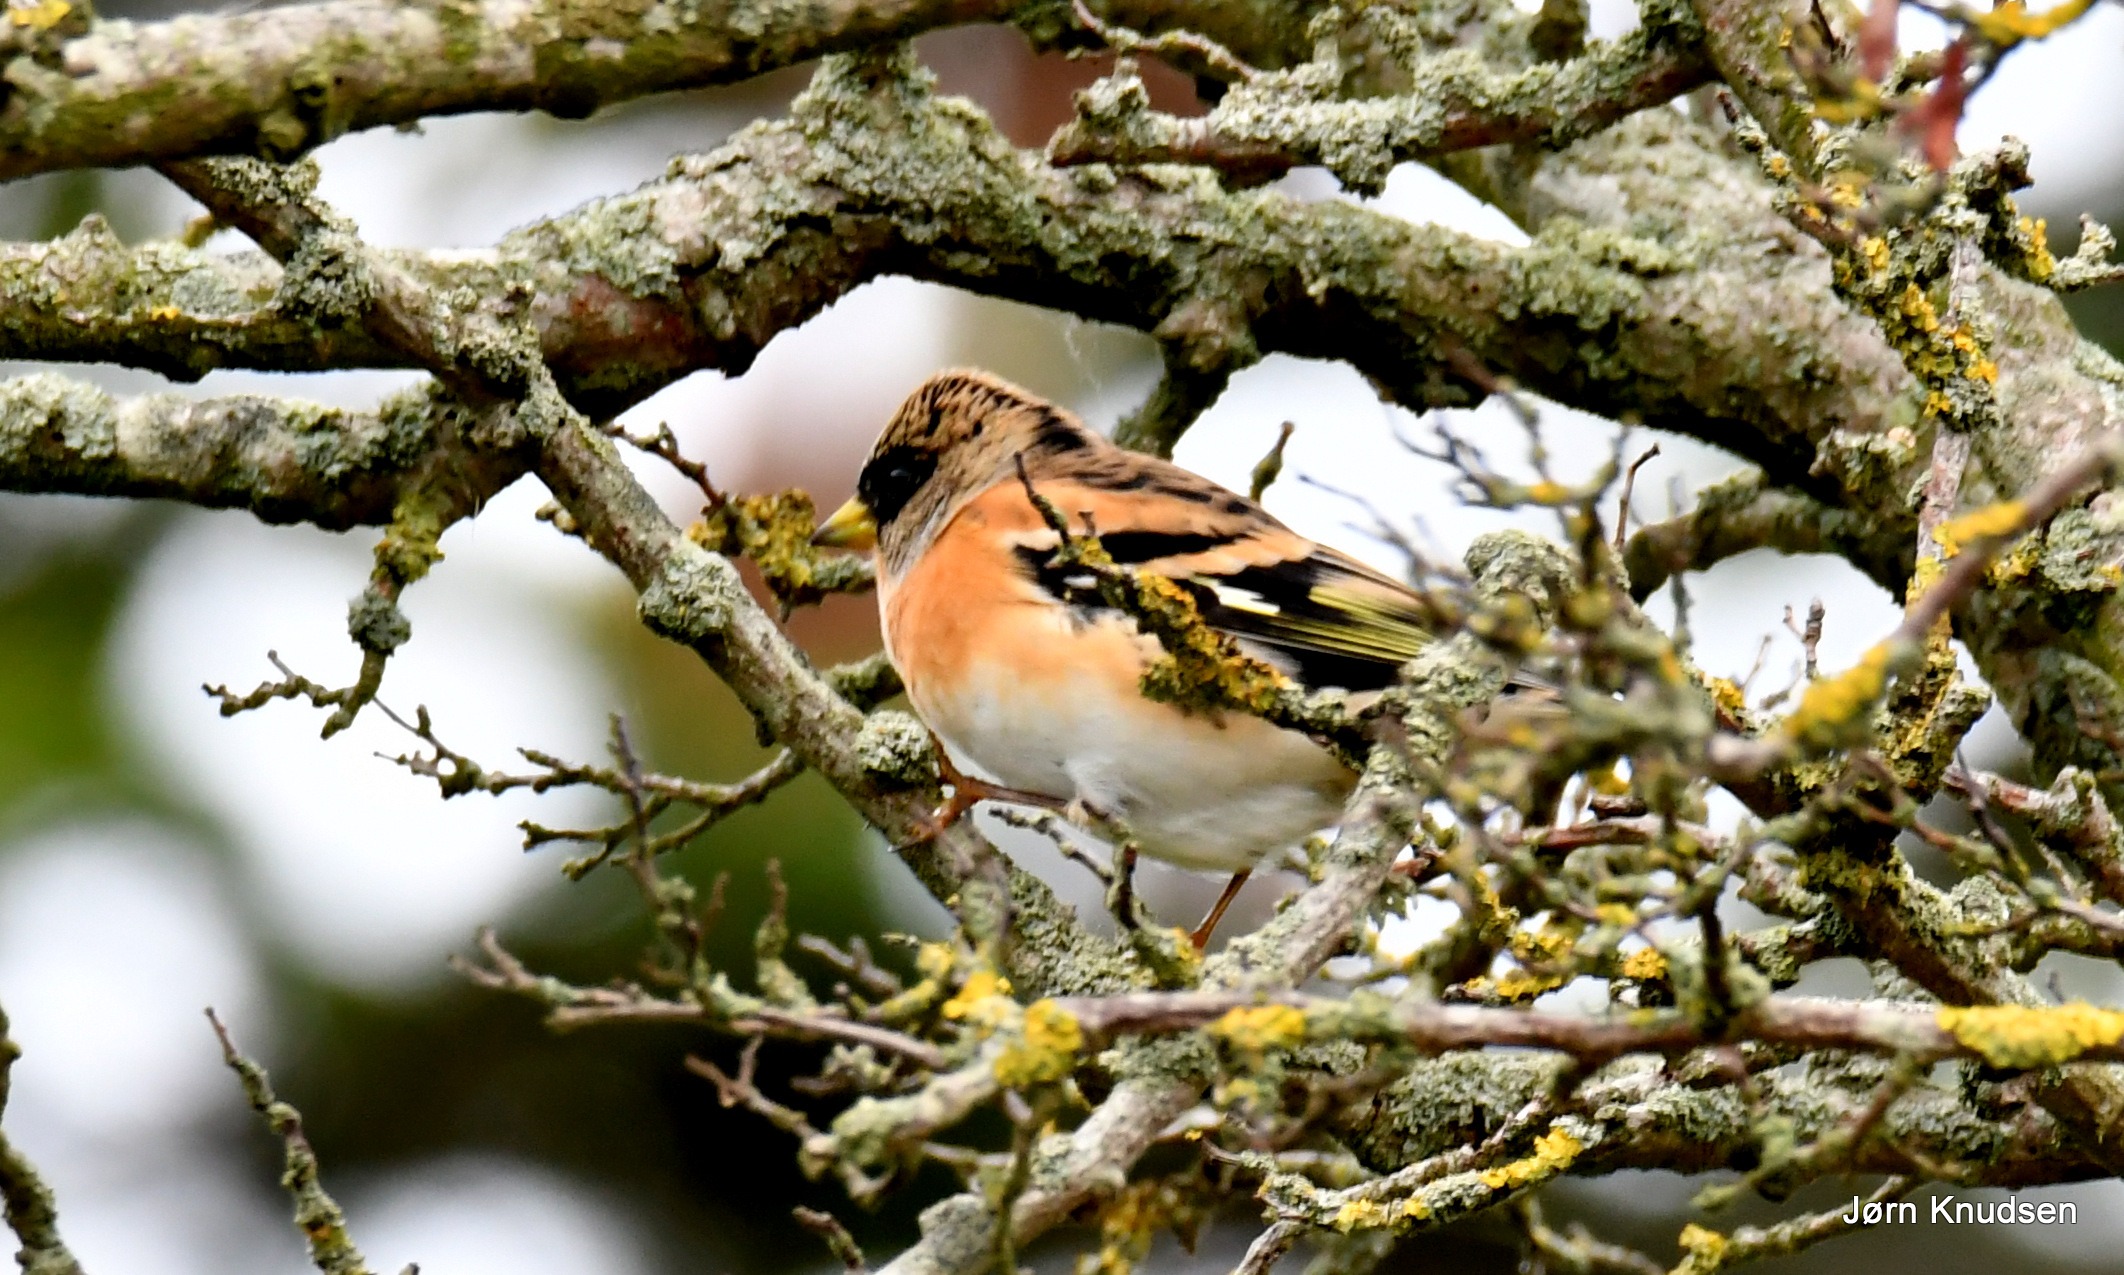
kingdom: Animalia
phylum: Chordata
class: Aves
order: Passeriformes
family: Fringillidae
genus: Fringilla
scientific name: Fringilla montifringilla
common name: Kvækerfinke
